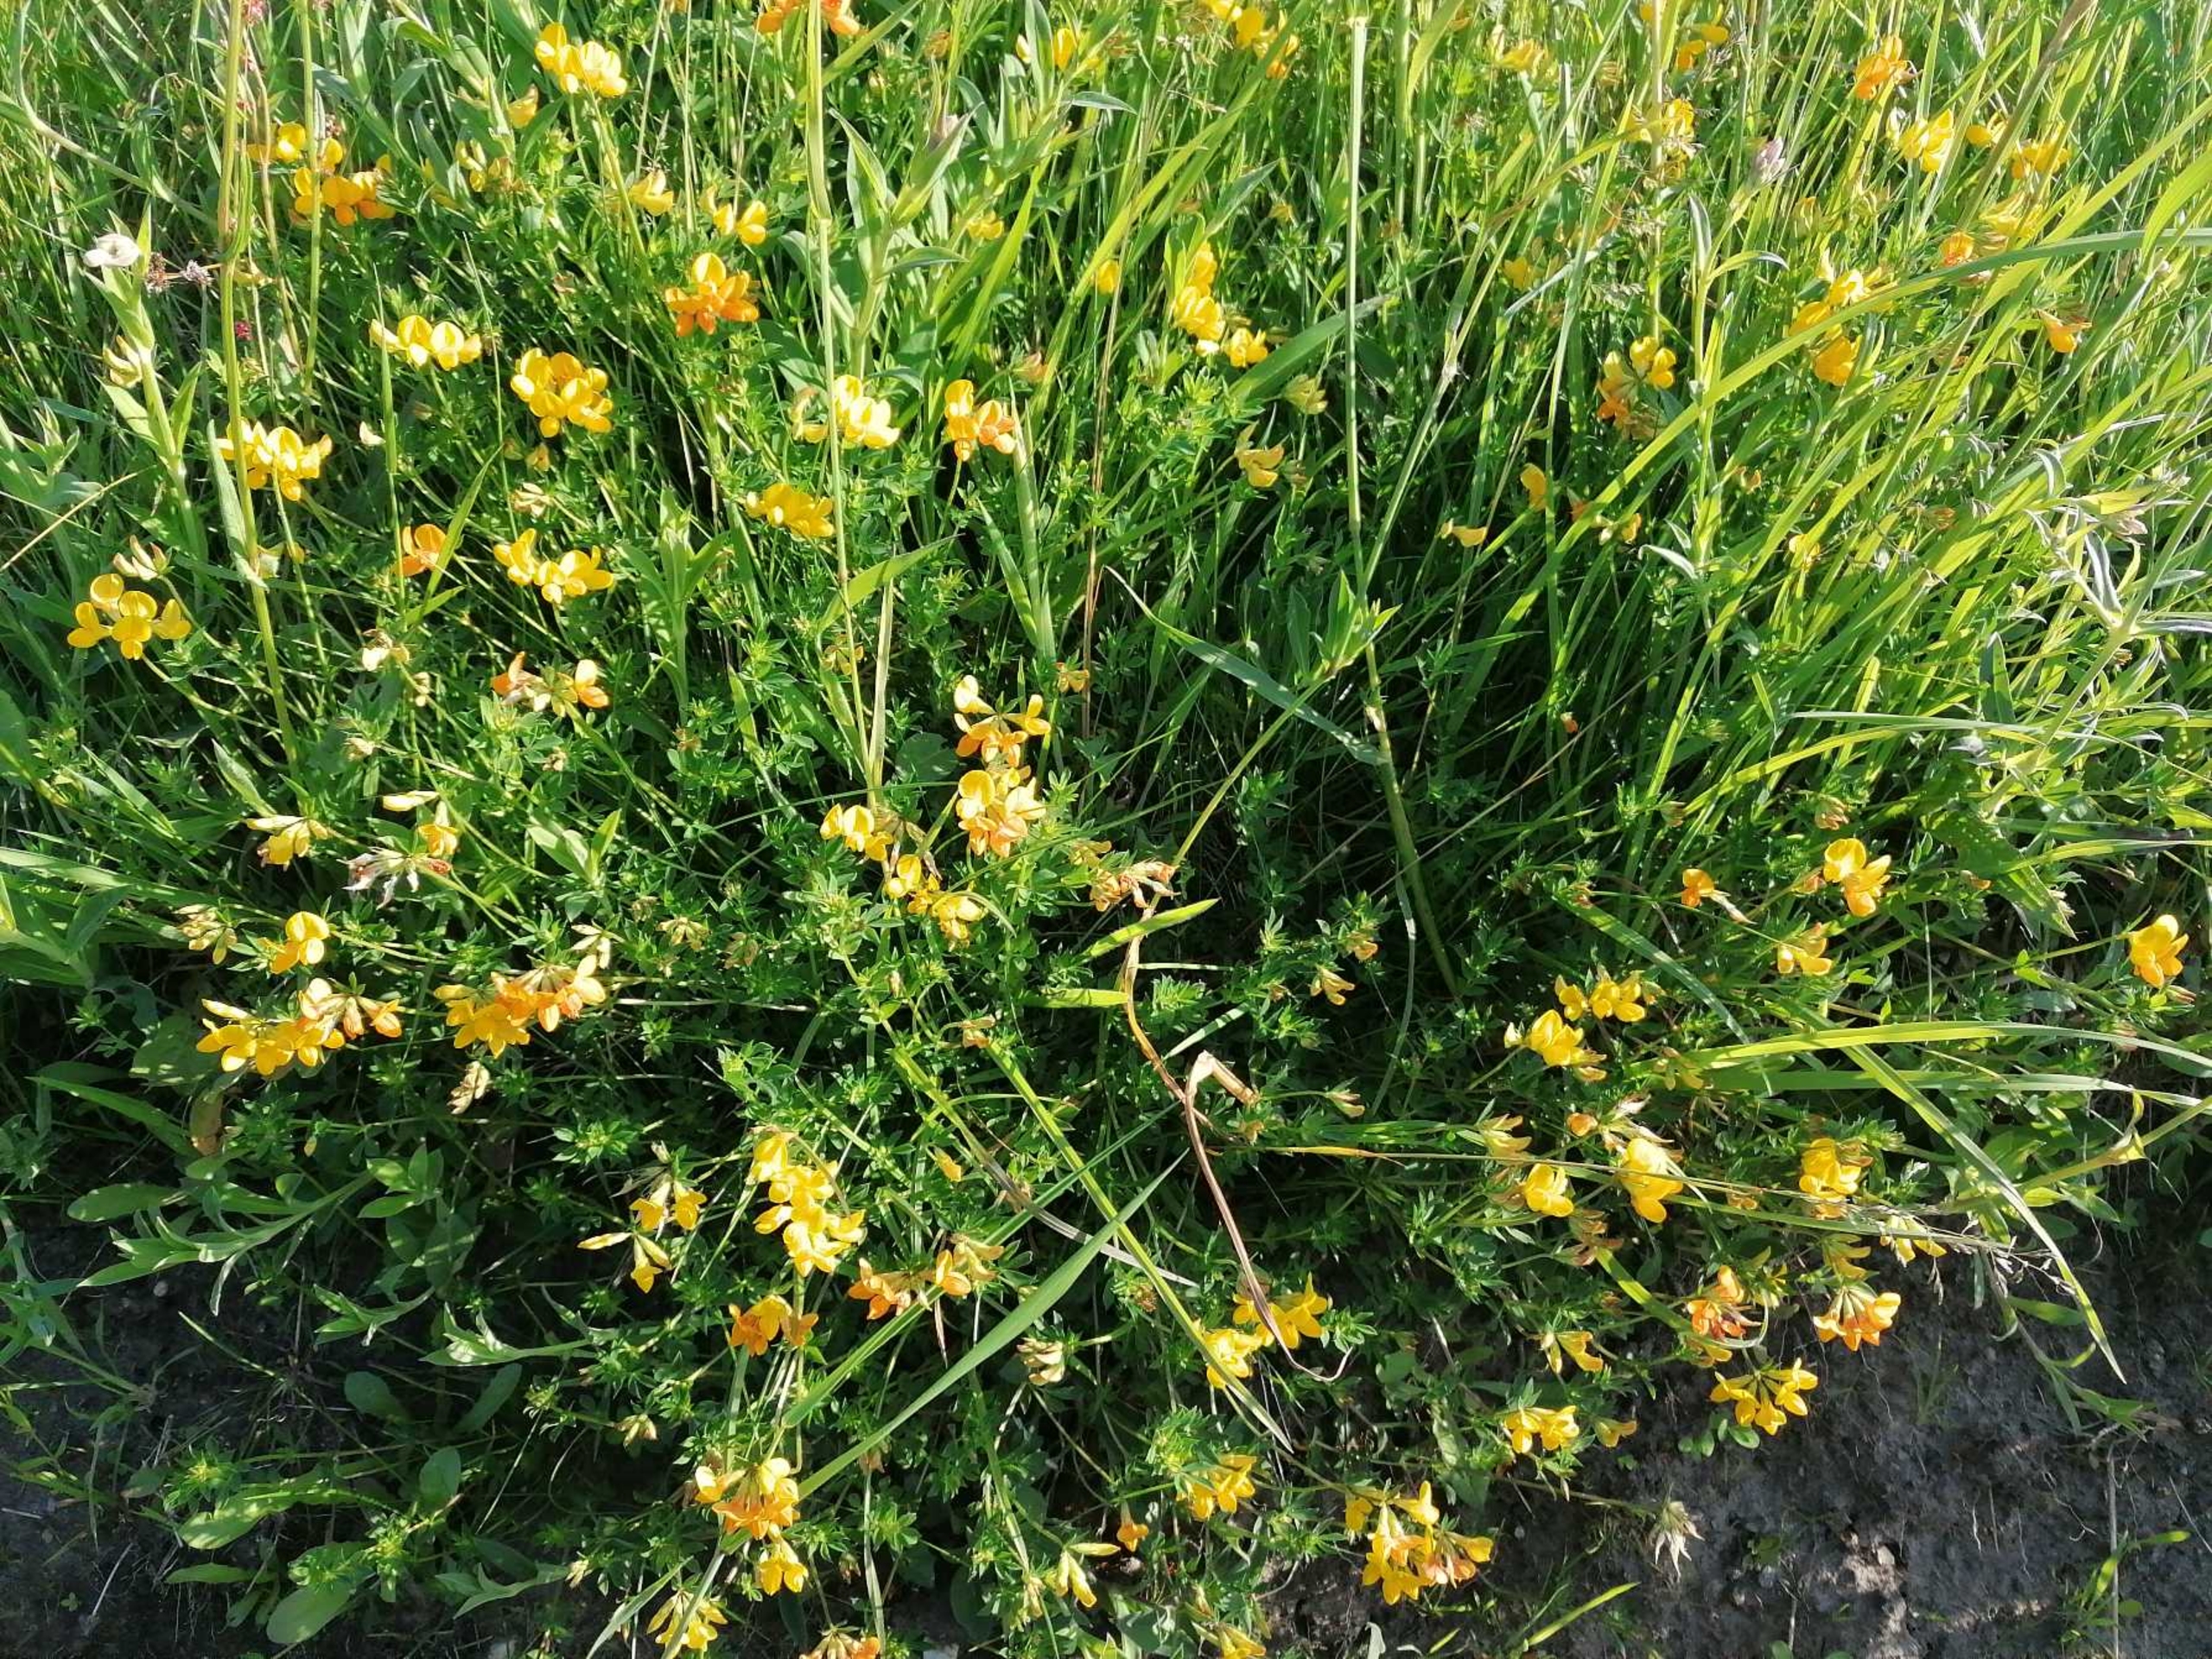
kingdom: Plantae
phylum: Tracheophyta
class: Magnoliopsida
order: Fabales
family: Fabaceae
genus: Lotus
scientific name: Lotus corniculatus
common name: Almindelig kællingetand
